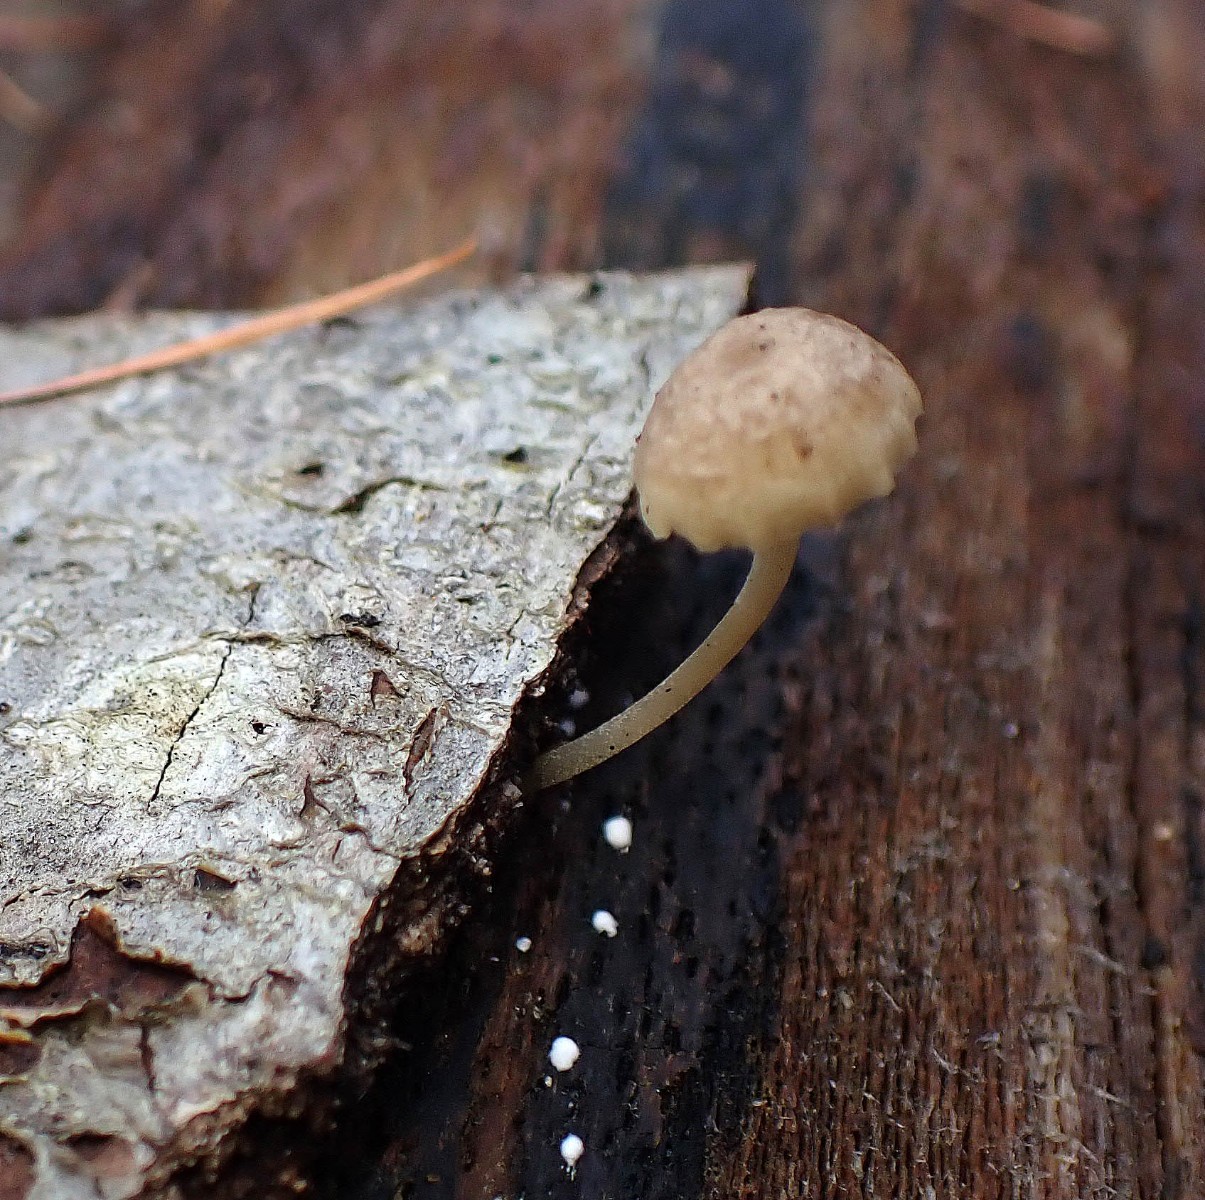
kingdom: Fungi
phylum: Basidiomycota
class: Agaricomycetes
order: Agaricales
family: Porotheleaceae
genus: Phloeomana
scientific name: Phloeomana speirea
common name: kvist-huesvamp
